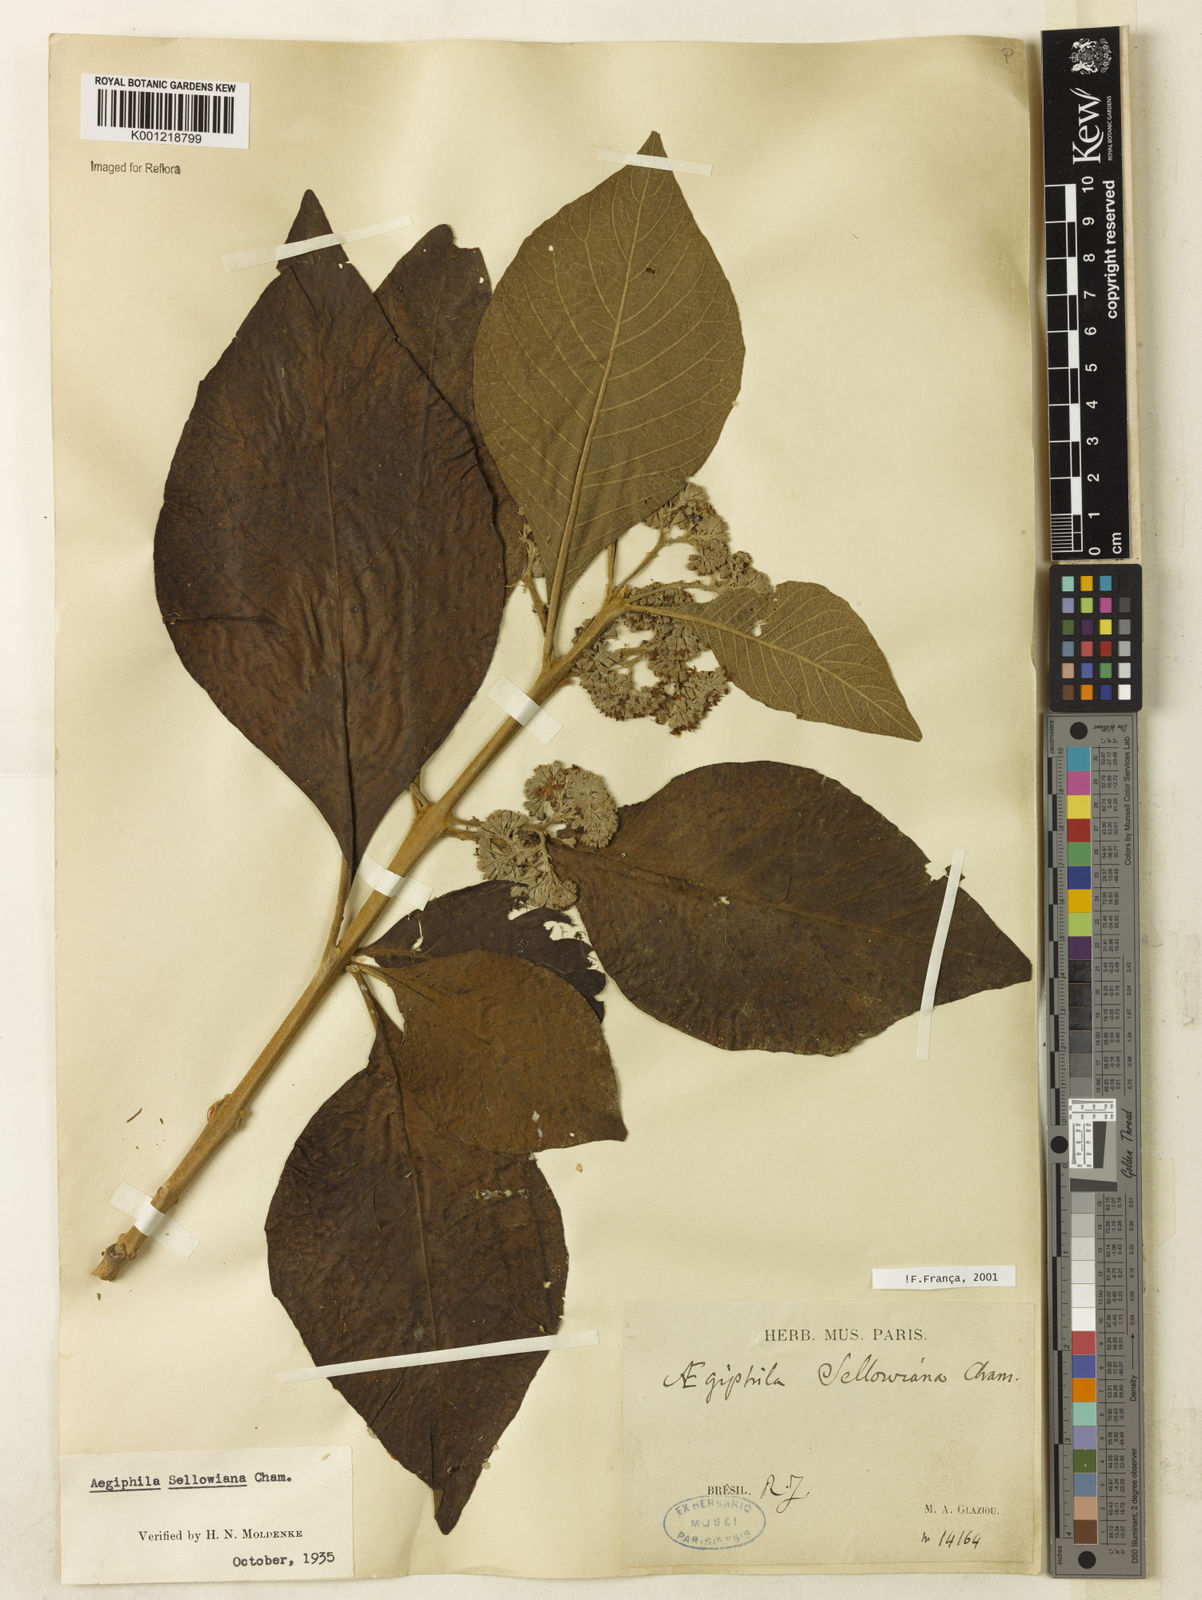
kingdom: Plantae
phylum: Tracheophyta
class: Magnoliopsida
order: Lamiales
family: Lamiaceae
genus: Aegiphila
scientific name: Aegiphila verticillata
